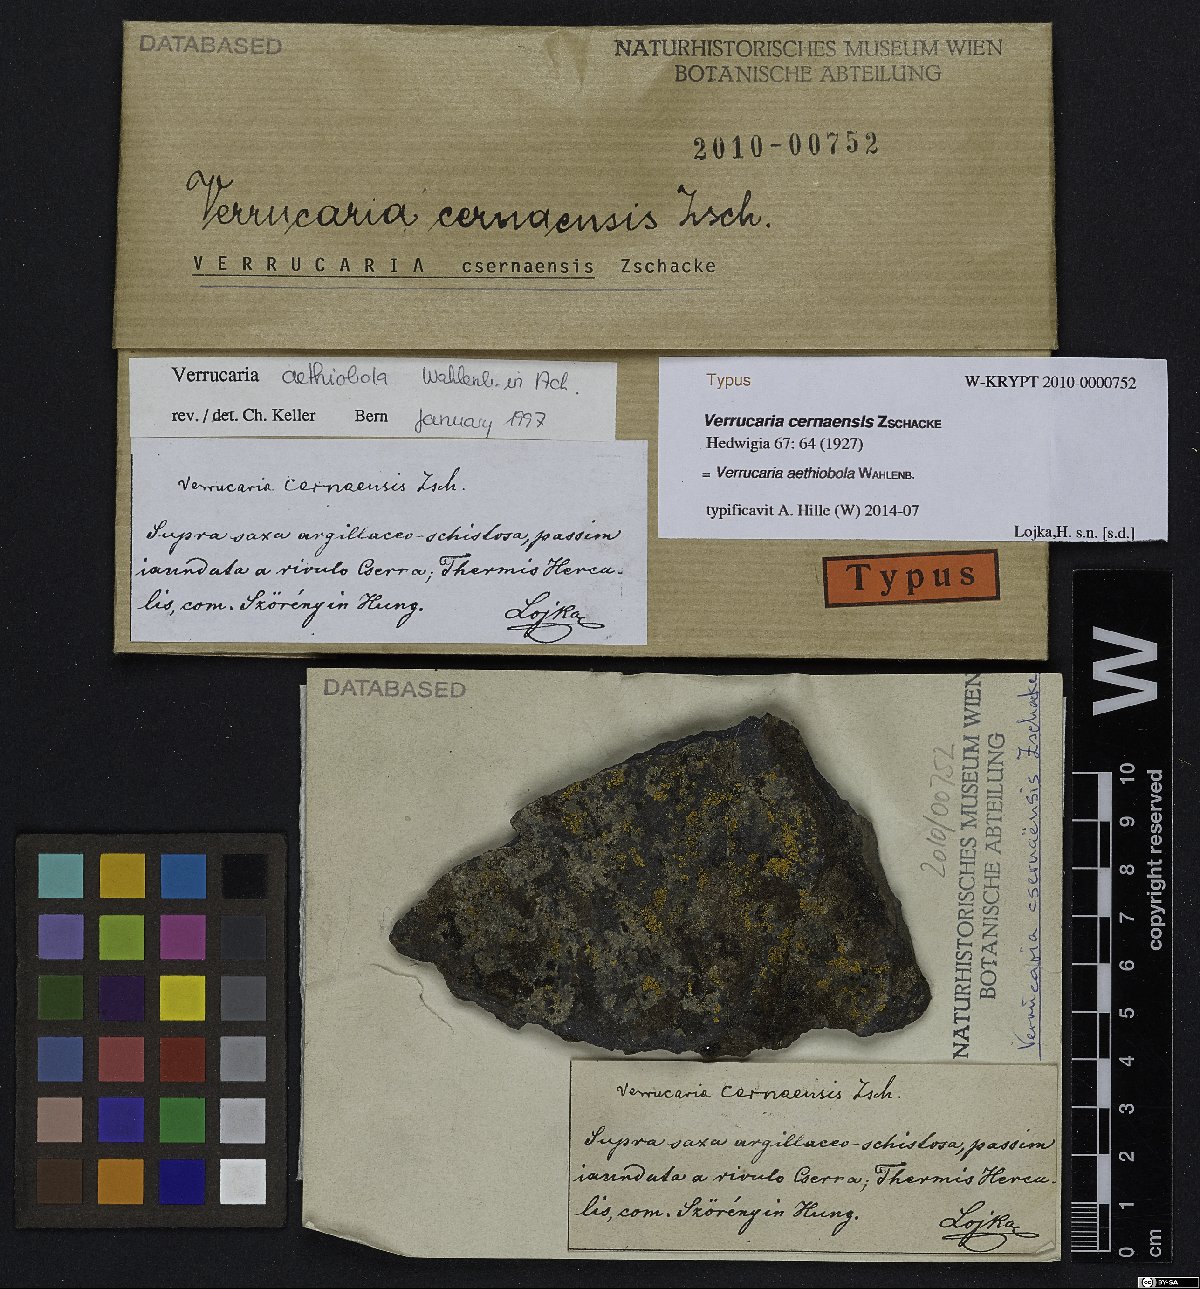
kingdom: Fungi
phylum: Ascomycota
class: Eurotiomycetes
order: Verrucariales
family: Verrucariaceae
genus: Verrucaria
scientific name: Verrucaria cernaensis
